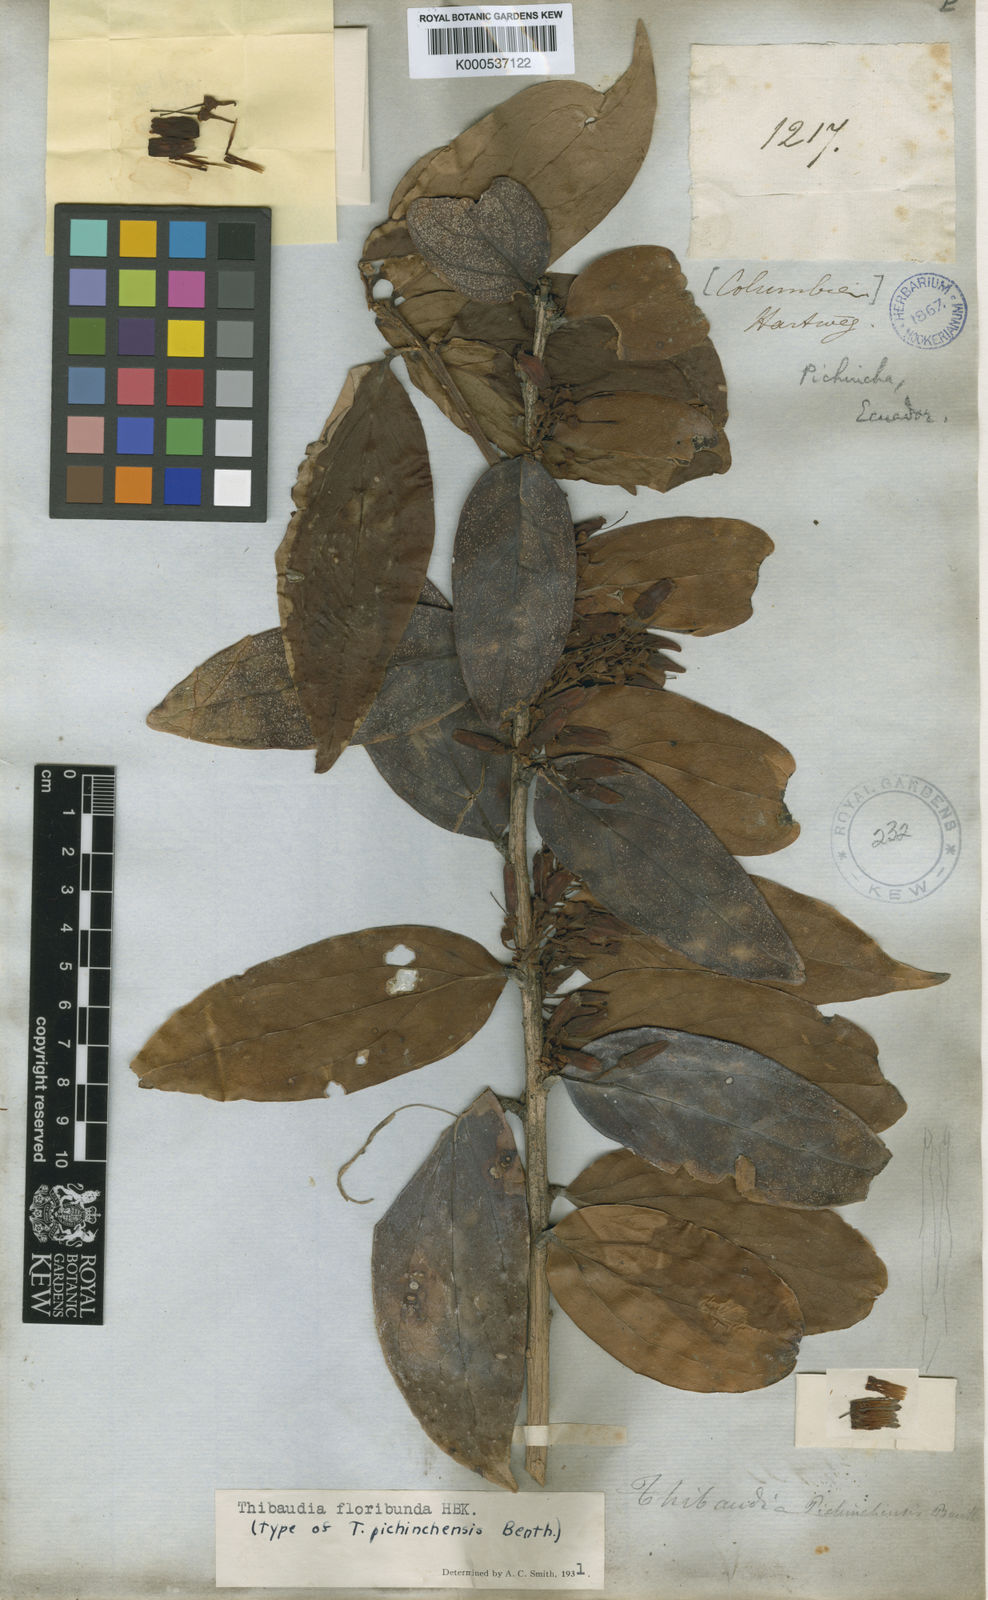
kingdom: Plantae
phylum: Tracheophyta
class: Magnoliopsida
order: Ericales
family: Ericaceae
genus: Thibaudia
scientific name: Thibaudia floribunda
